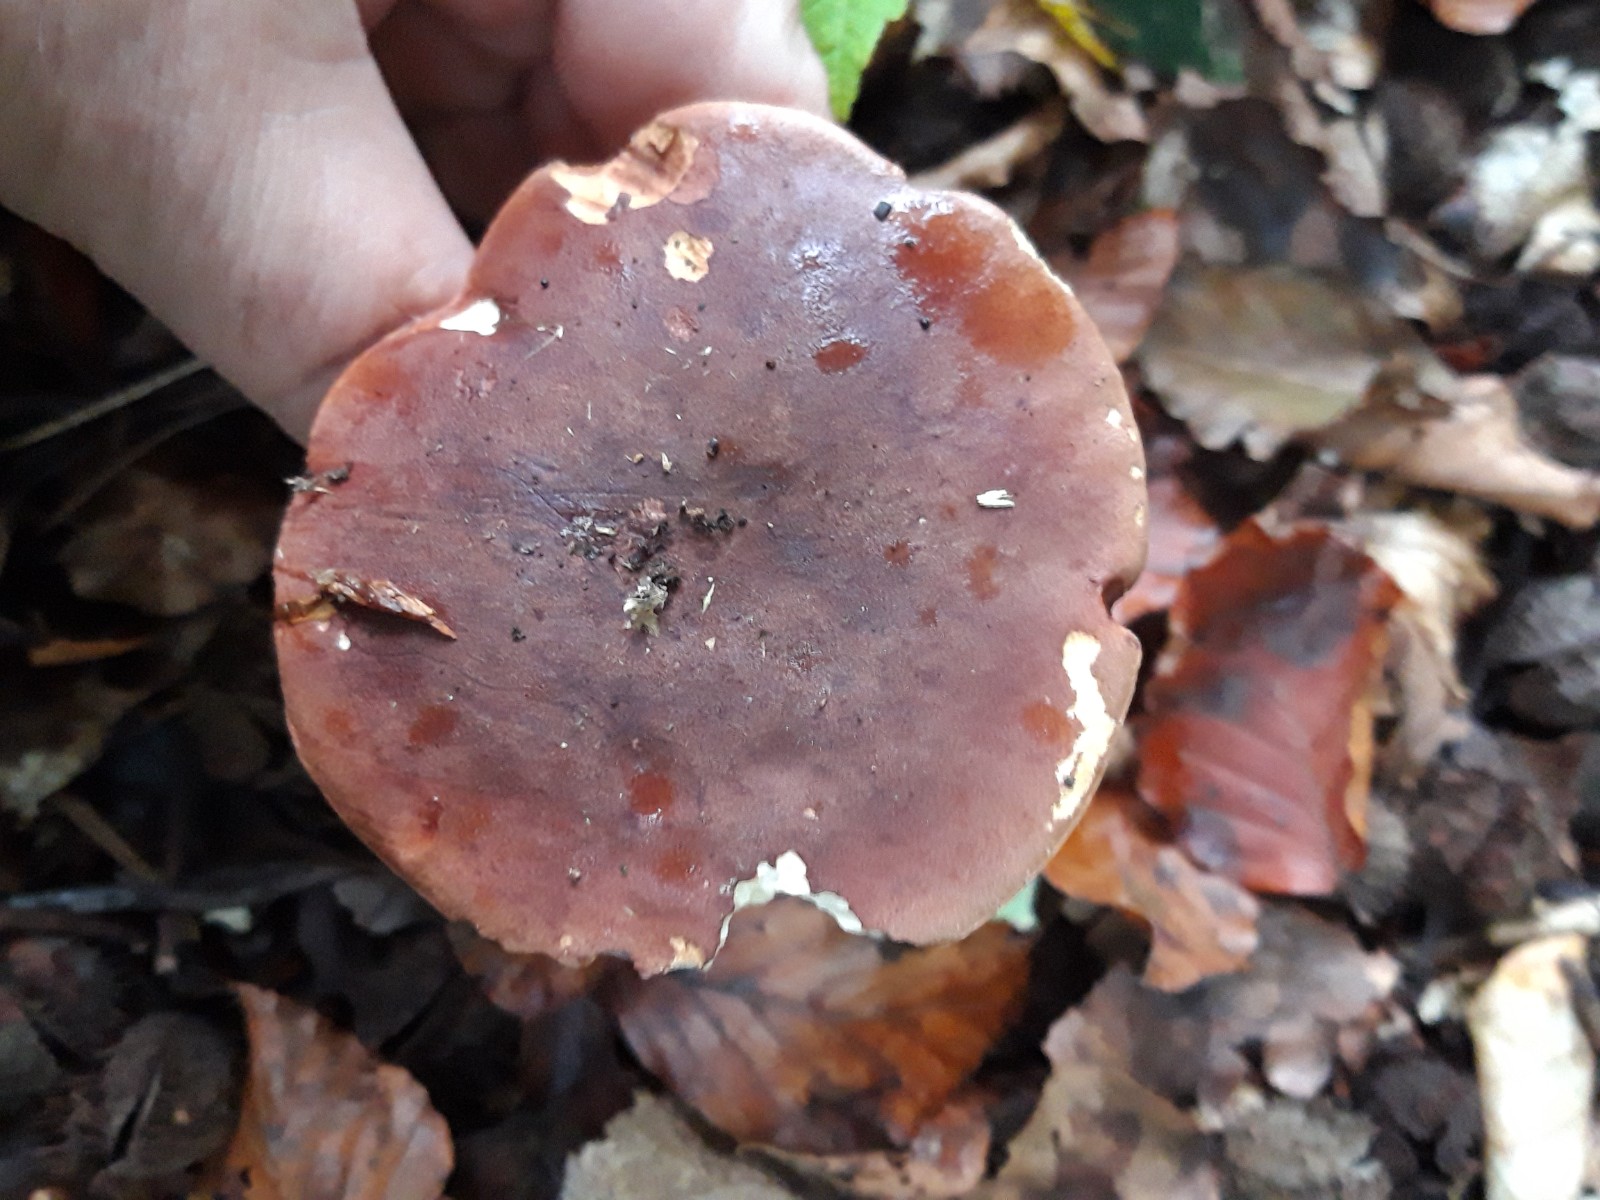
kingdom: Fungi
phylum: Basidiomycota
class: Agaricomycetes
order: Boletales
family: Boletaceae
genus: Imleria
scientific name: Imleria badia
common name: brunstokket rørhat
